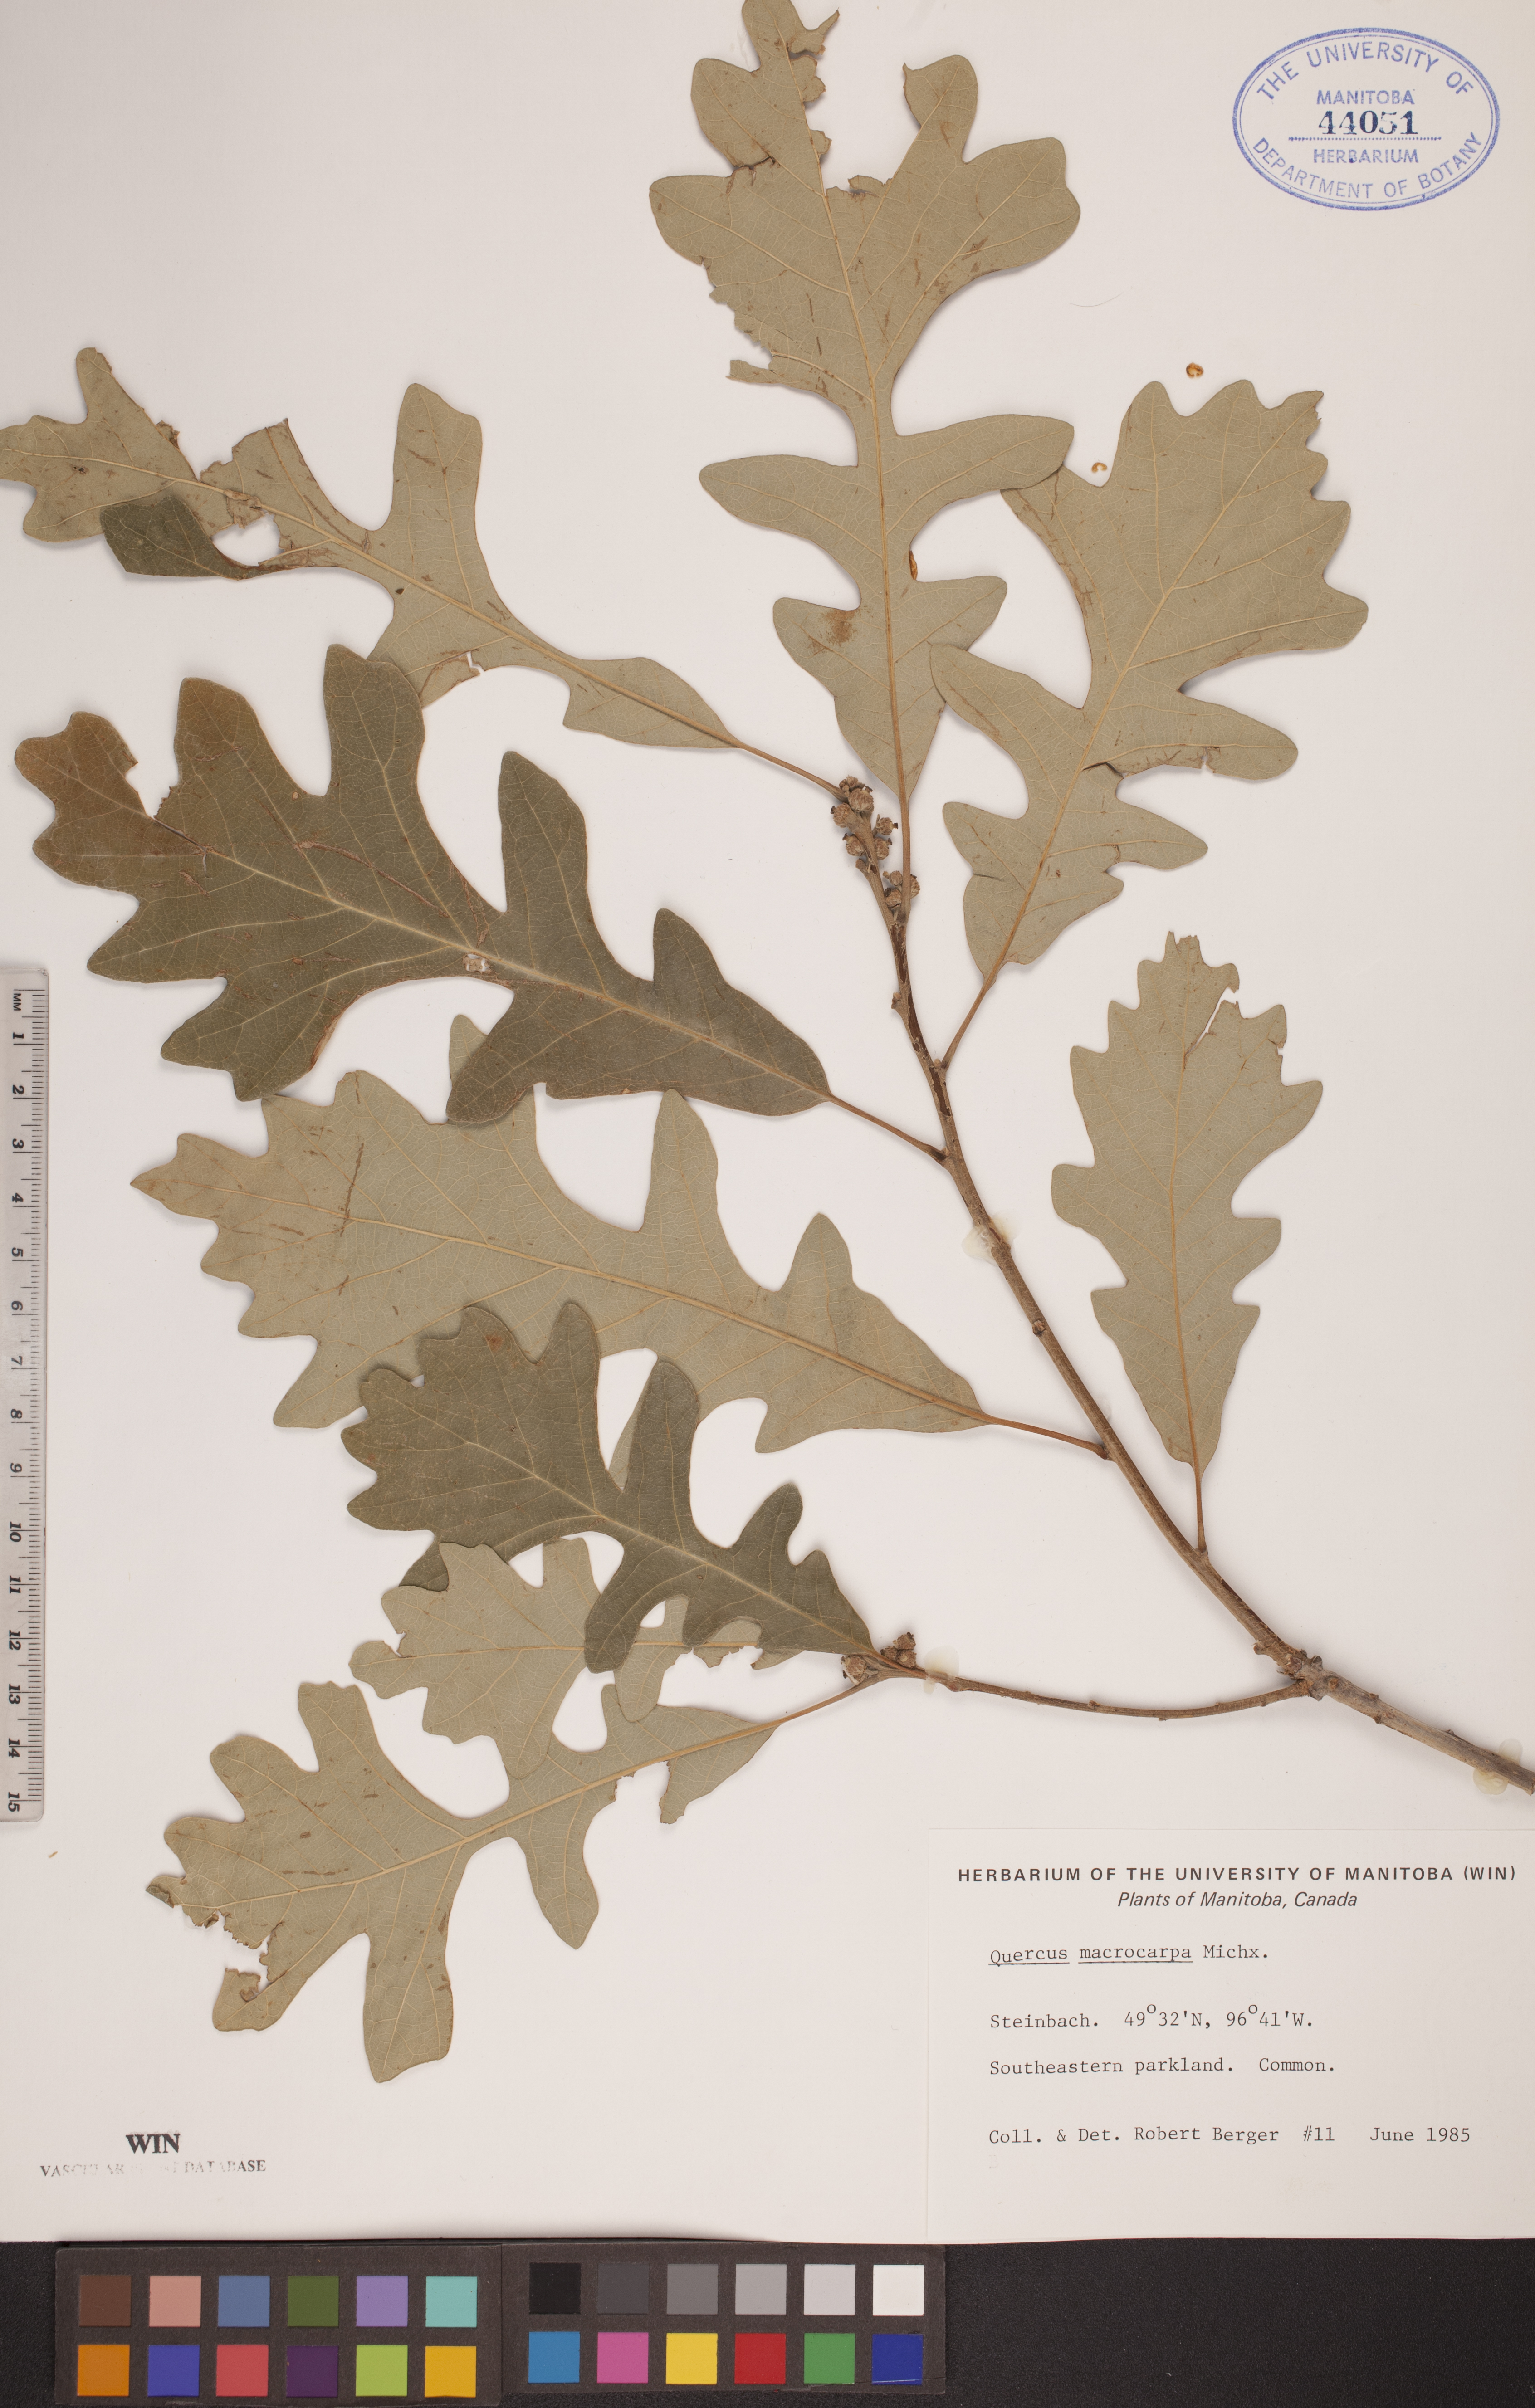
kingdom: Plantae
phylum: Tracheophyta
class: Magnoliopsida
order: Fagales
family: Fagaceae
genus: Quercus
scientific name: Quercus macrocarpa
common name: Bur oak
